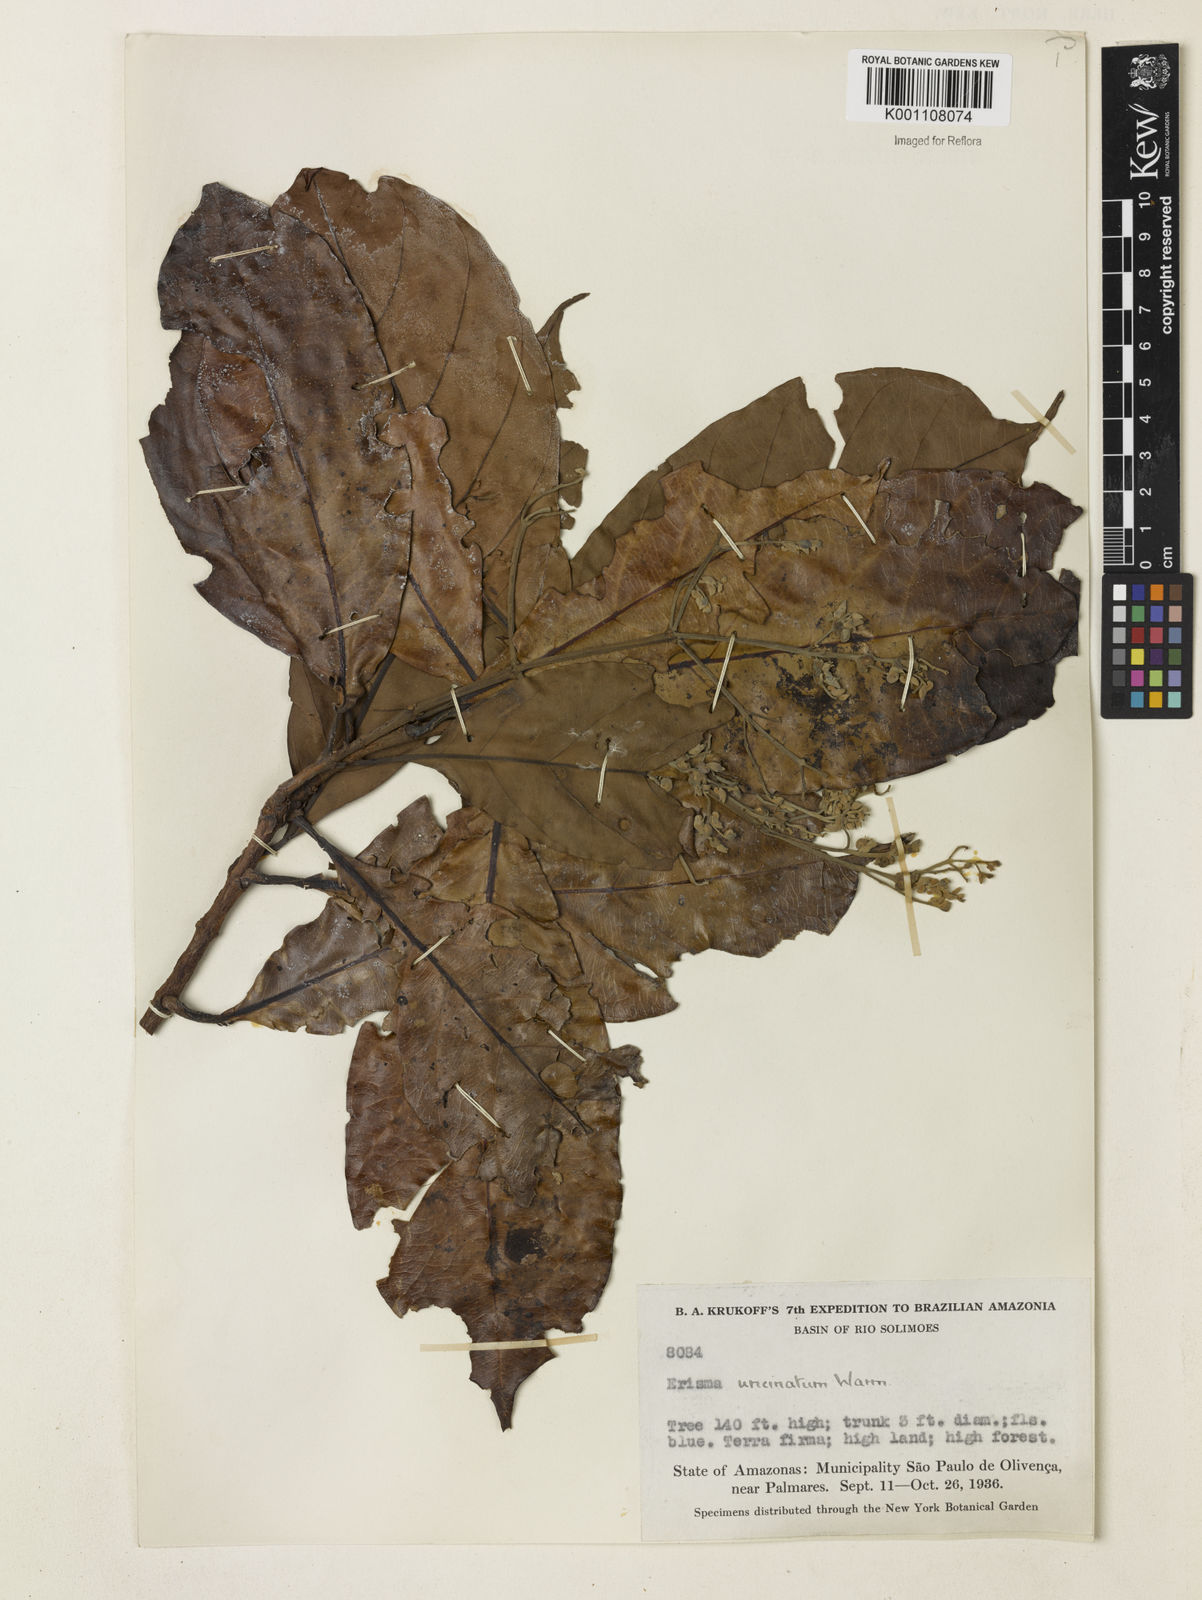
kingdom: Plantae
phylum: Tracheophyta
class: Magnoliopsida
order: Myrtales
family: Vochysiaceae
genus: Erisma
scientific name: Erisma uncinatum
